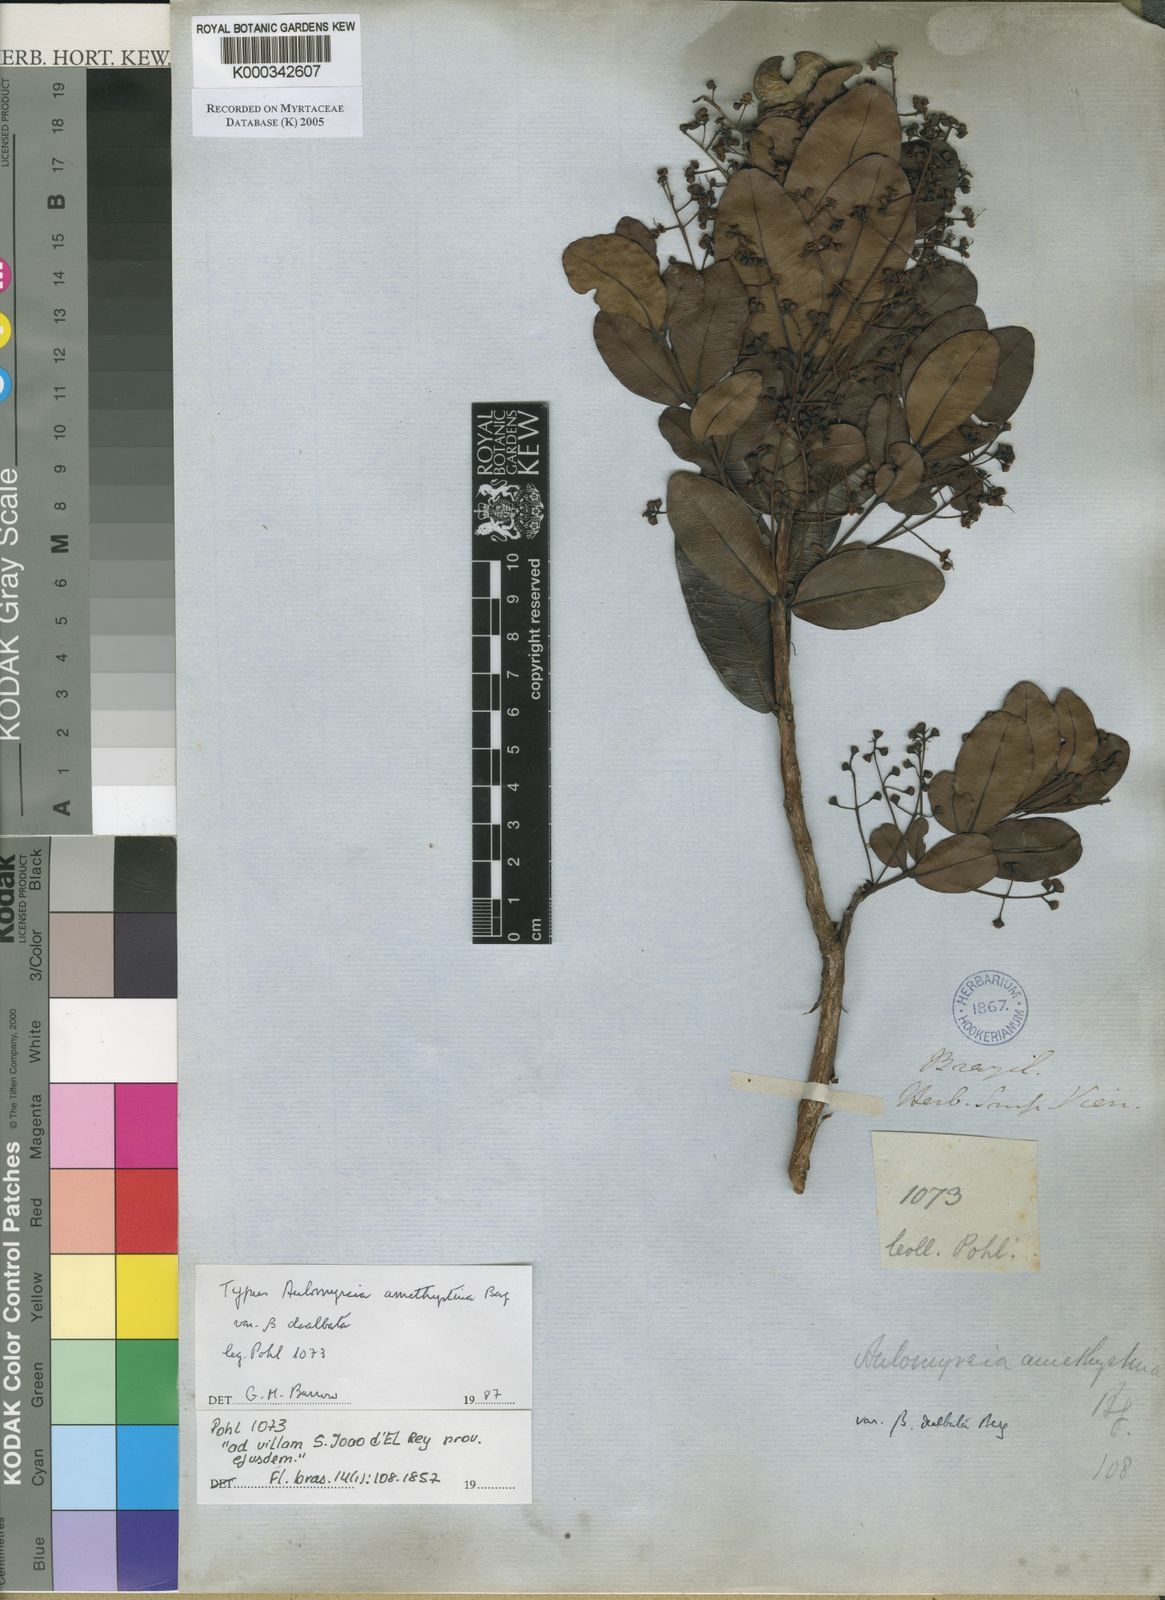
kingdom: Plantae
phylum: Tracheophyta
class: Magnoliopsida
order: Myrtales
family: Myrtaceae
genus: Myrcia
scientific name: Myrcia amethystina
